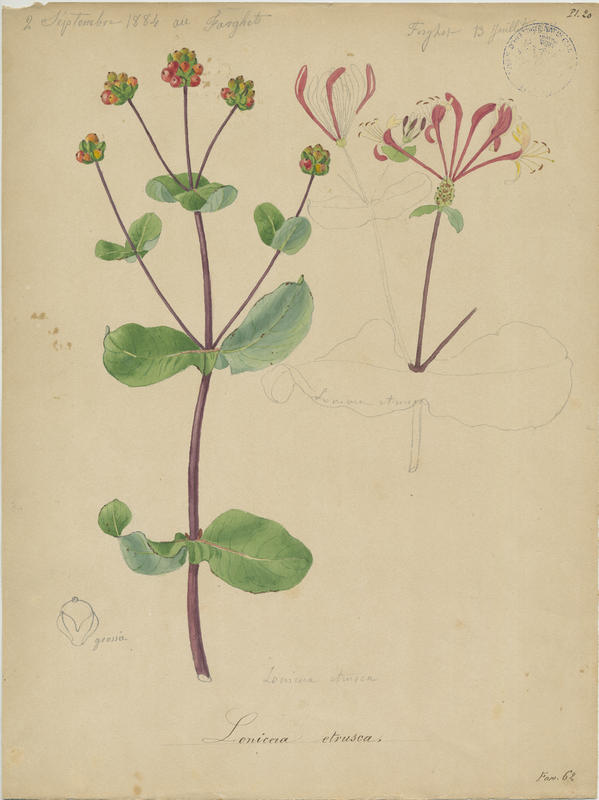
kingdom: Plantae
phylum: Tracheophyta
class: Magnoliopsida
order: Dipsacales
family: Caprifoliaceae
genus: Lonicera
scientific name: Lonicera etrusca
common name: Etruscan honeysuckle
